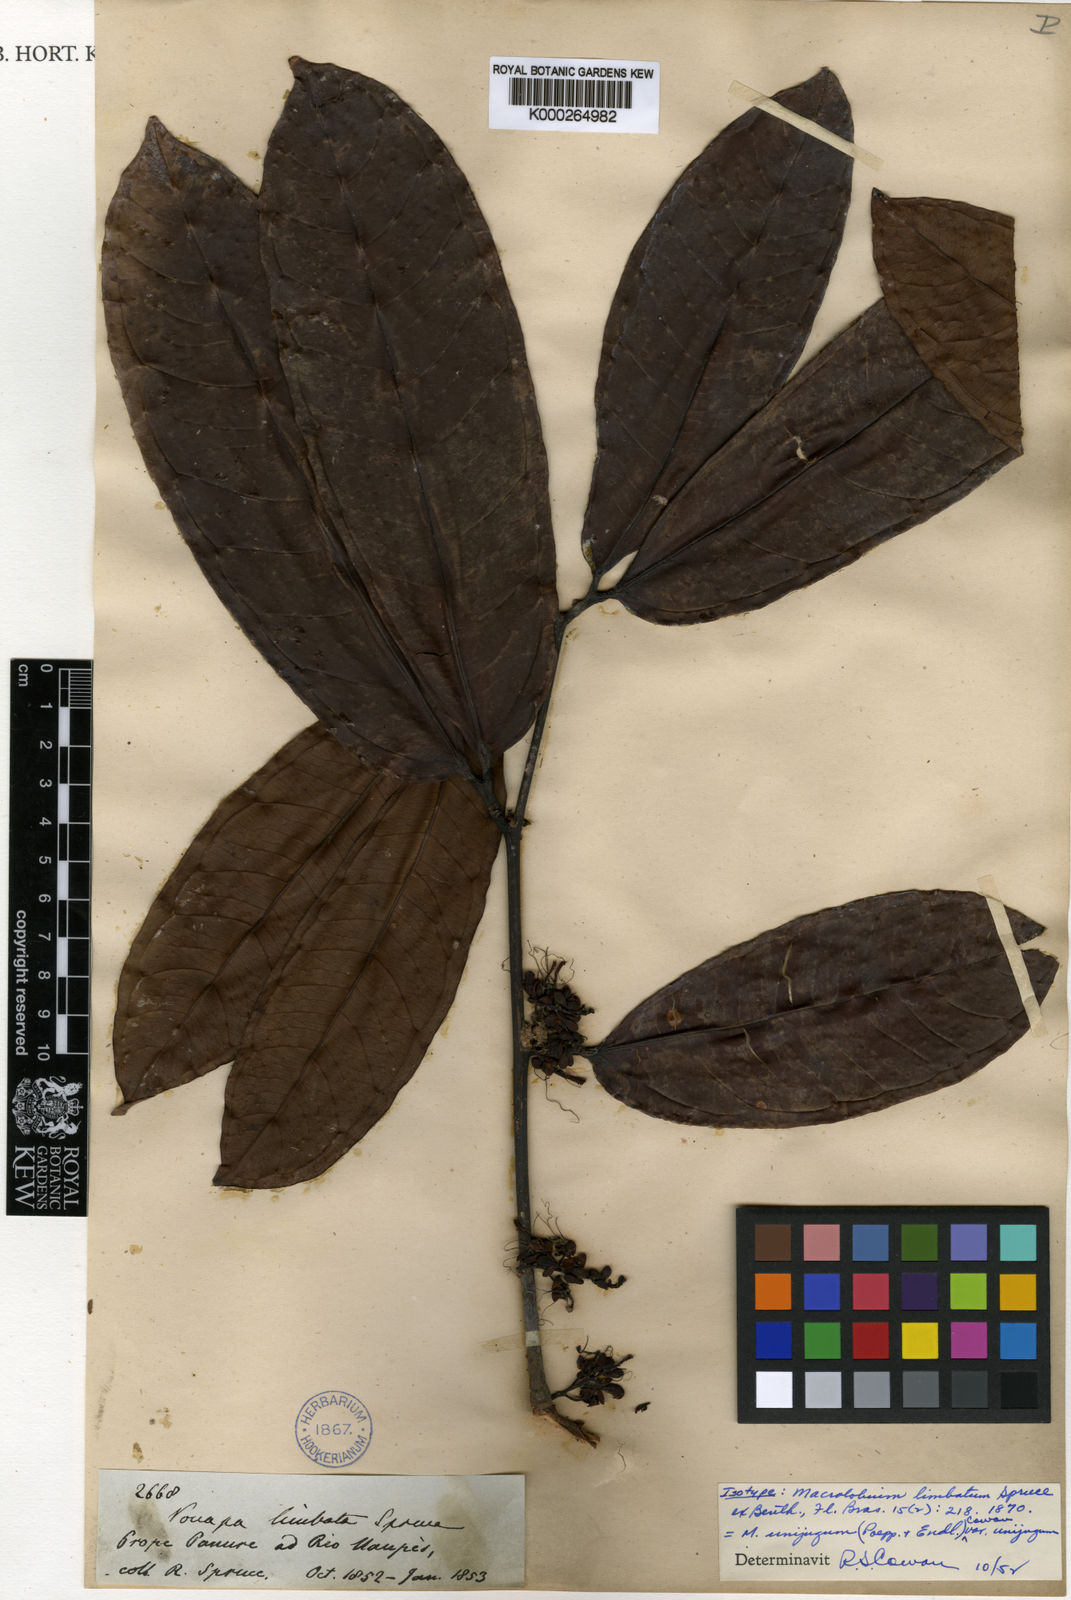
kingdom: Plantae
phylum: Tracheophyta
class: Magnoliopsida
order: Fabales
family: Fabaceae
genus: Macrolobium
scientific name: Macrolobium limbatum
